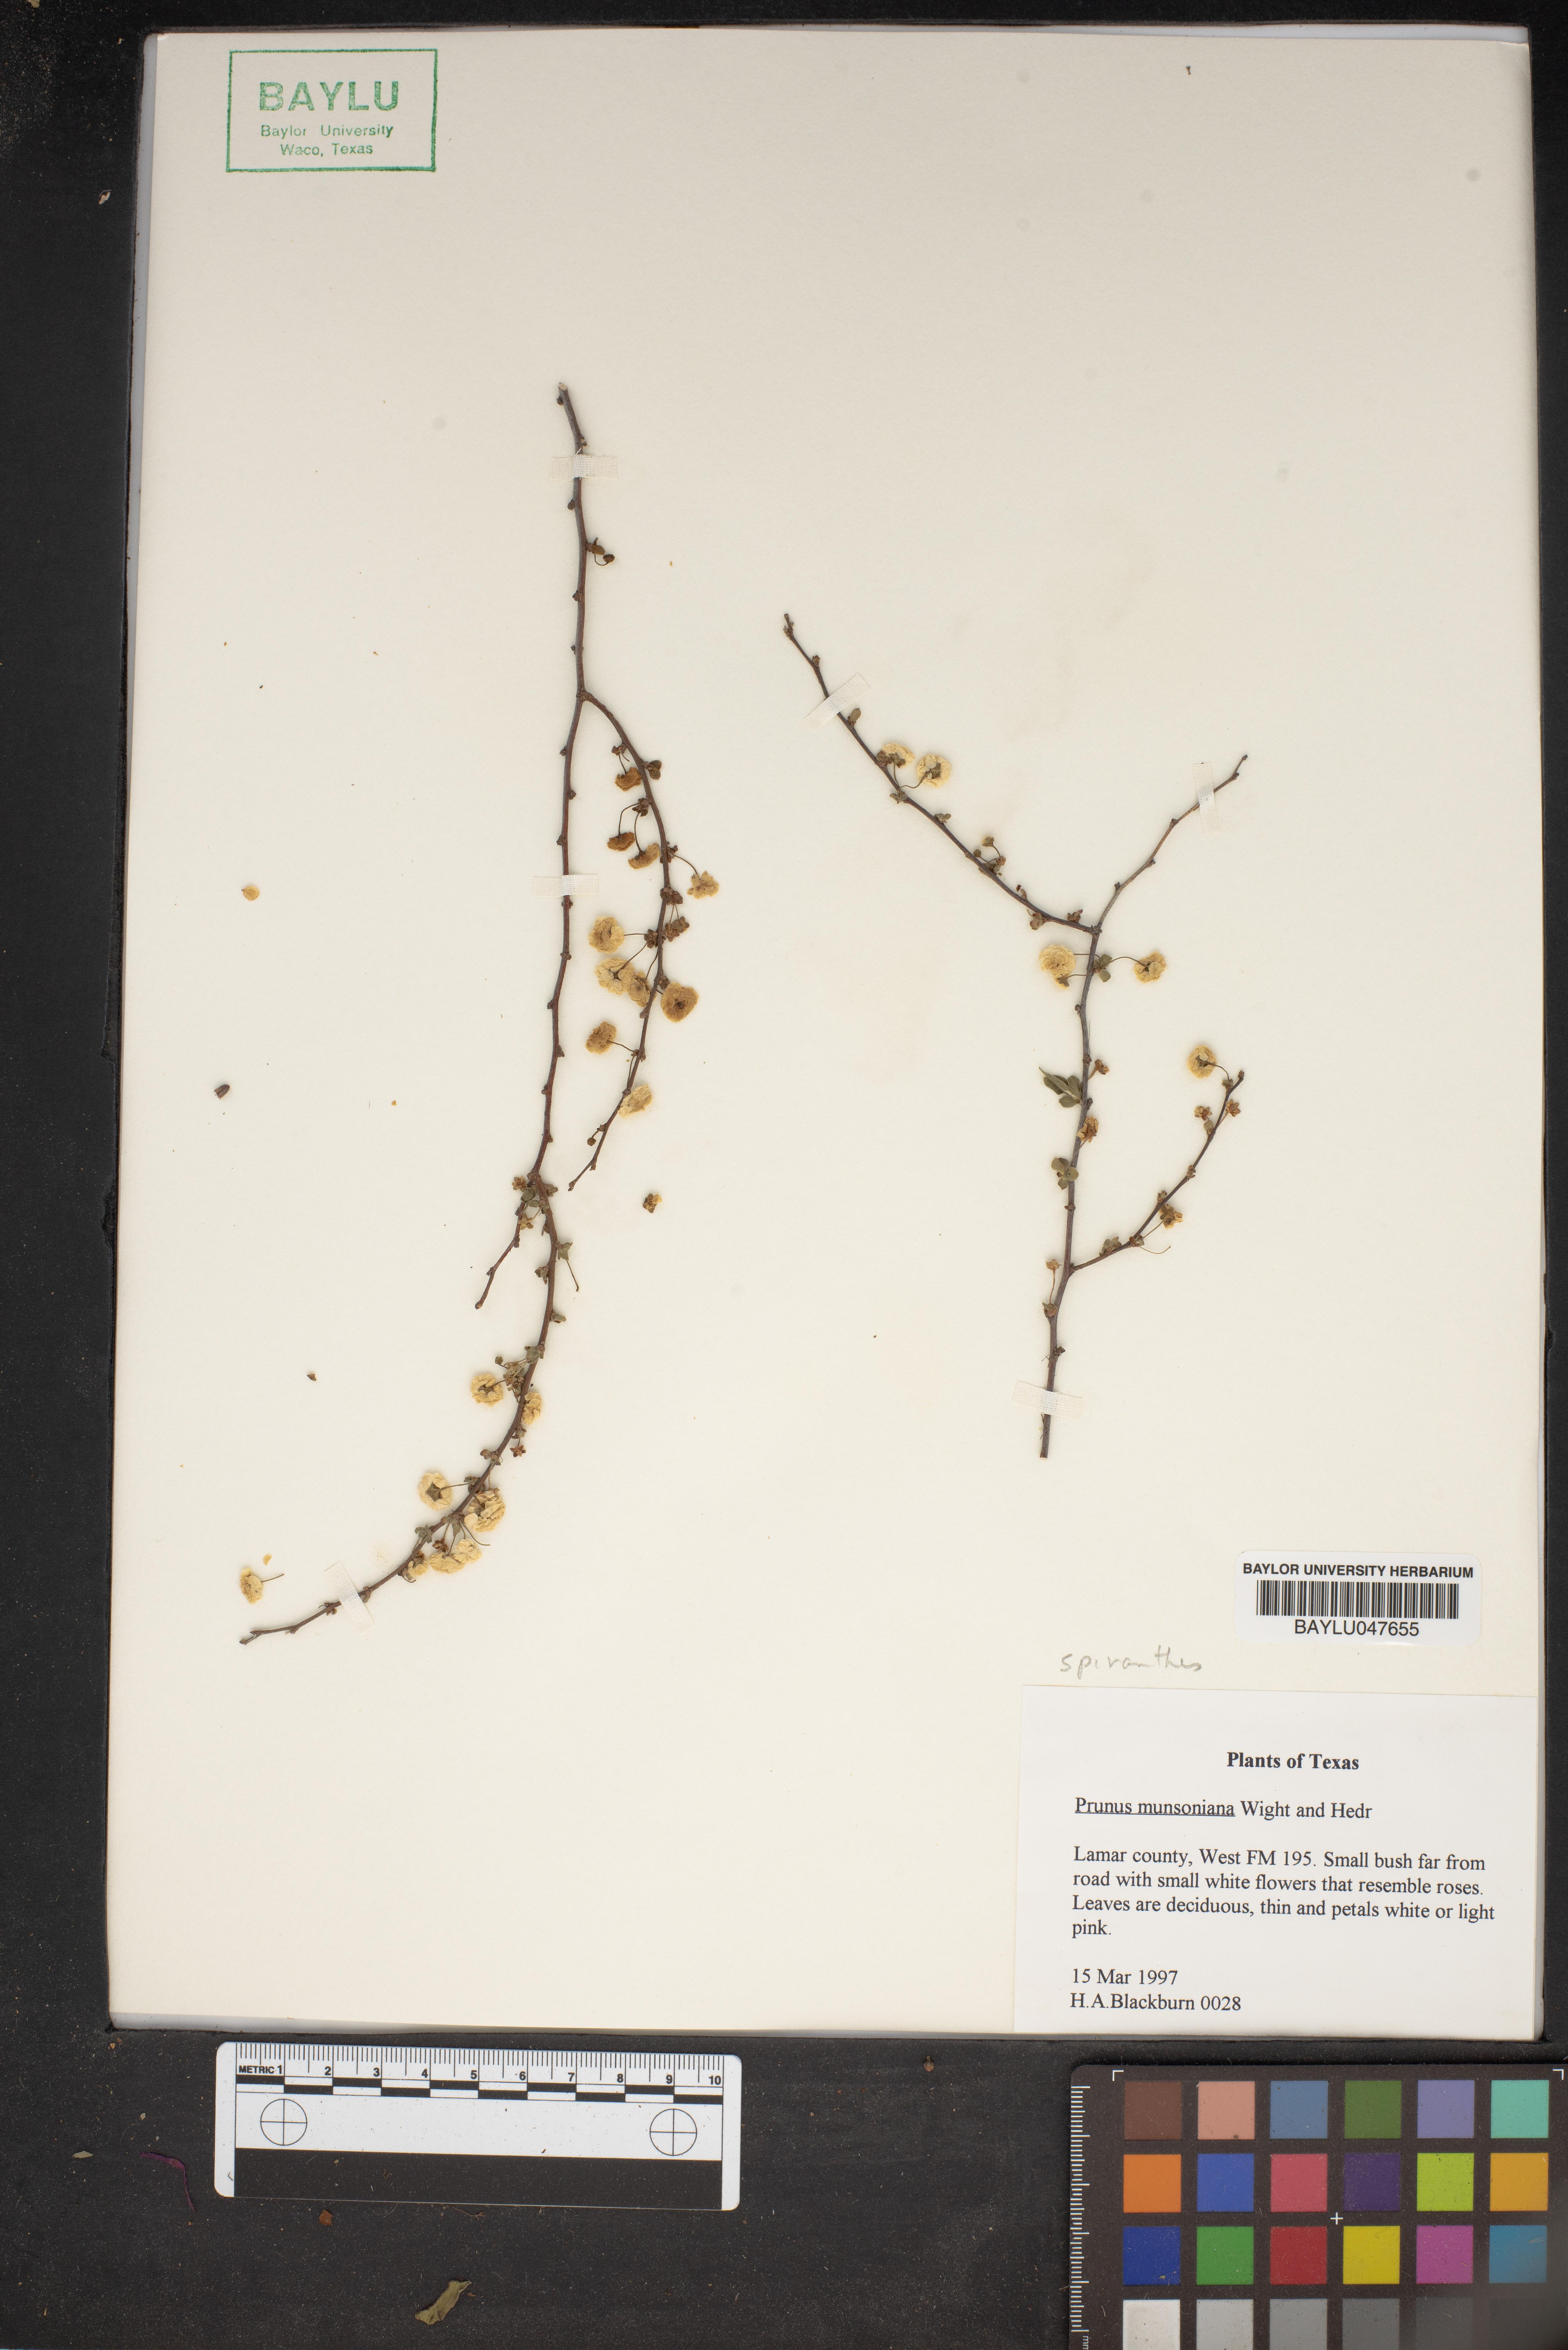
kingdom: Plantae
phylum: Tracheophyta
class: Magnoliopsida
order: Rosales
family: Rosaceae
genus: Prunus
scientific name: Prunus munsoniana
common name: Creek plum
